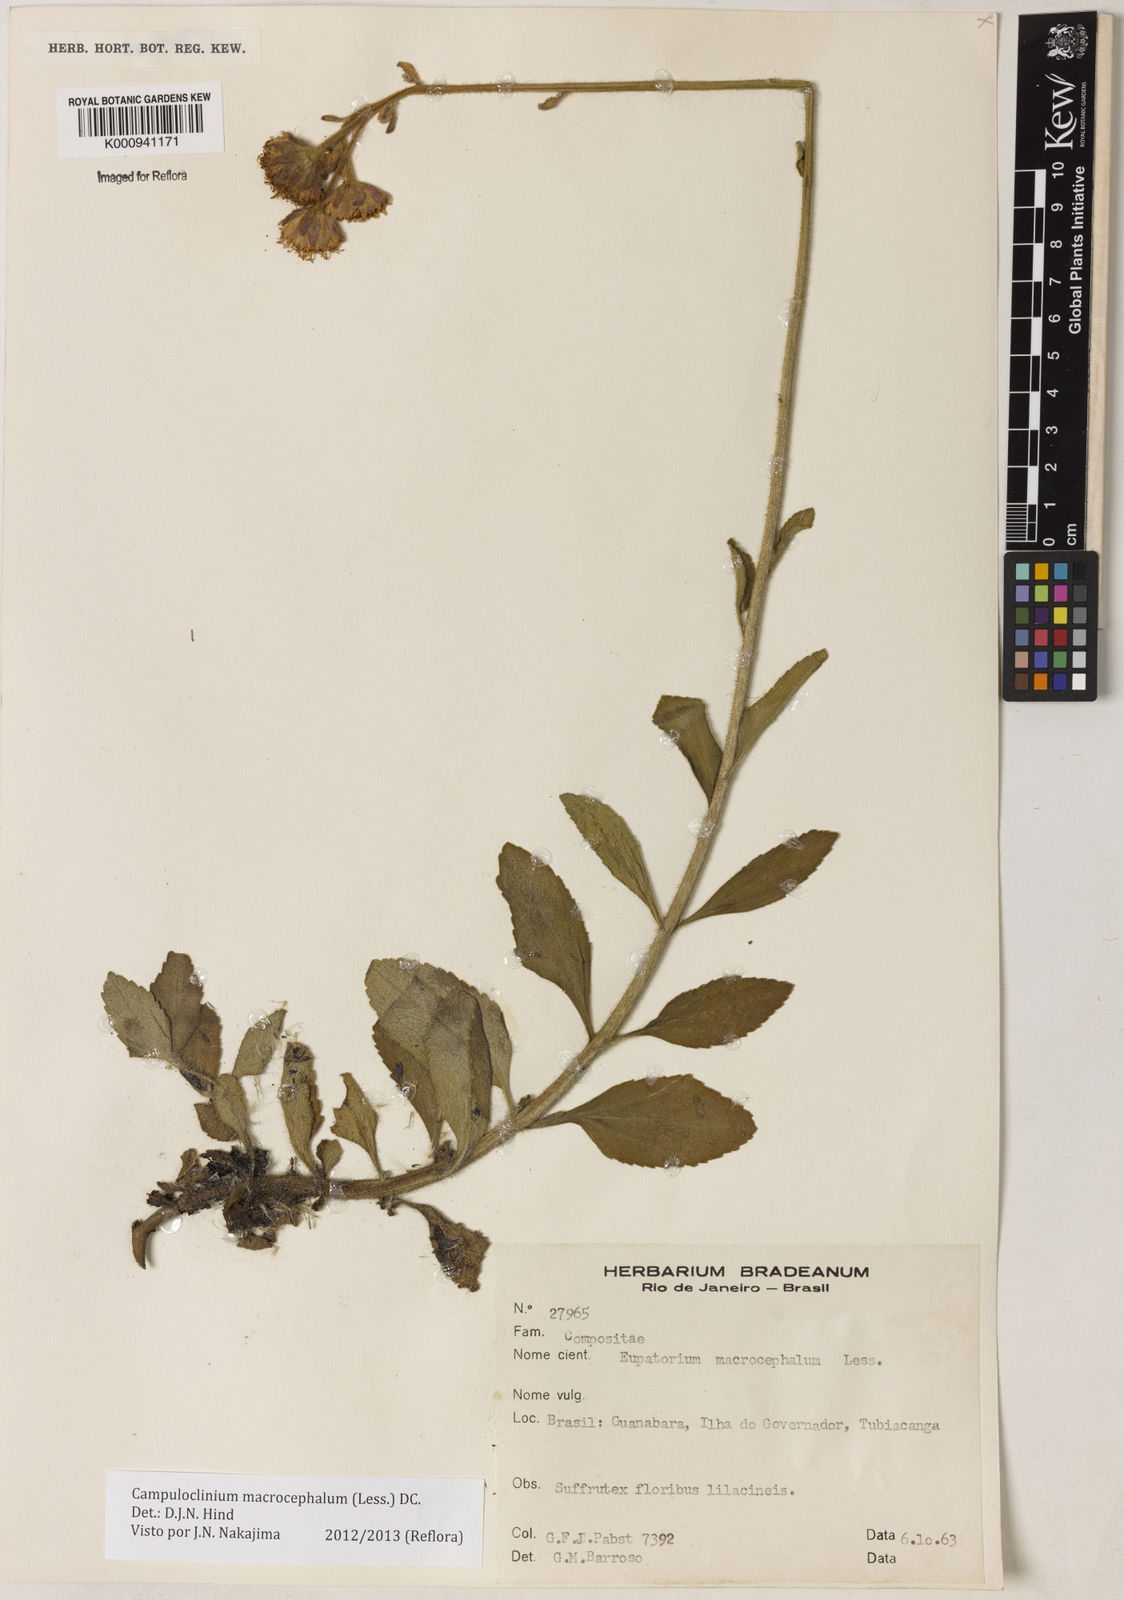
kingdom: Plantae
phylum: Tracheophyta
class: Magnoliopsida
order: Asterales
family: Asteraceae
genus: Campuloclinium
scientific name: Campuloclinium macrocephalum
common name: Pompomweed
